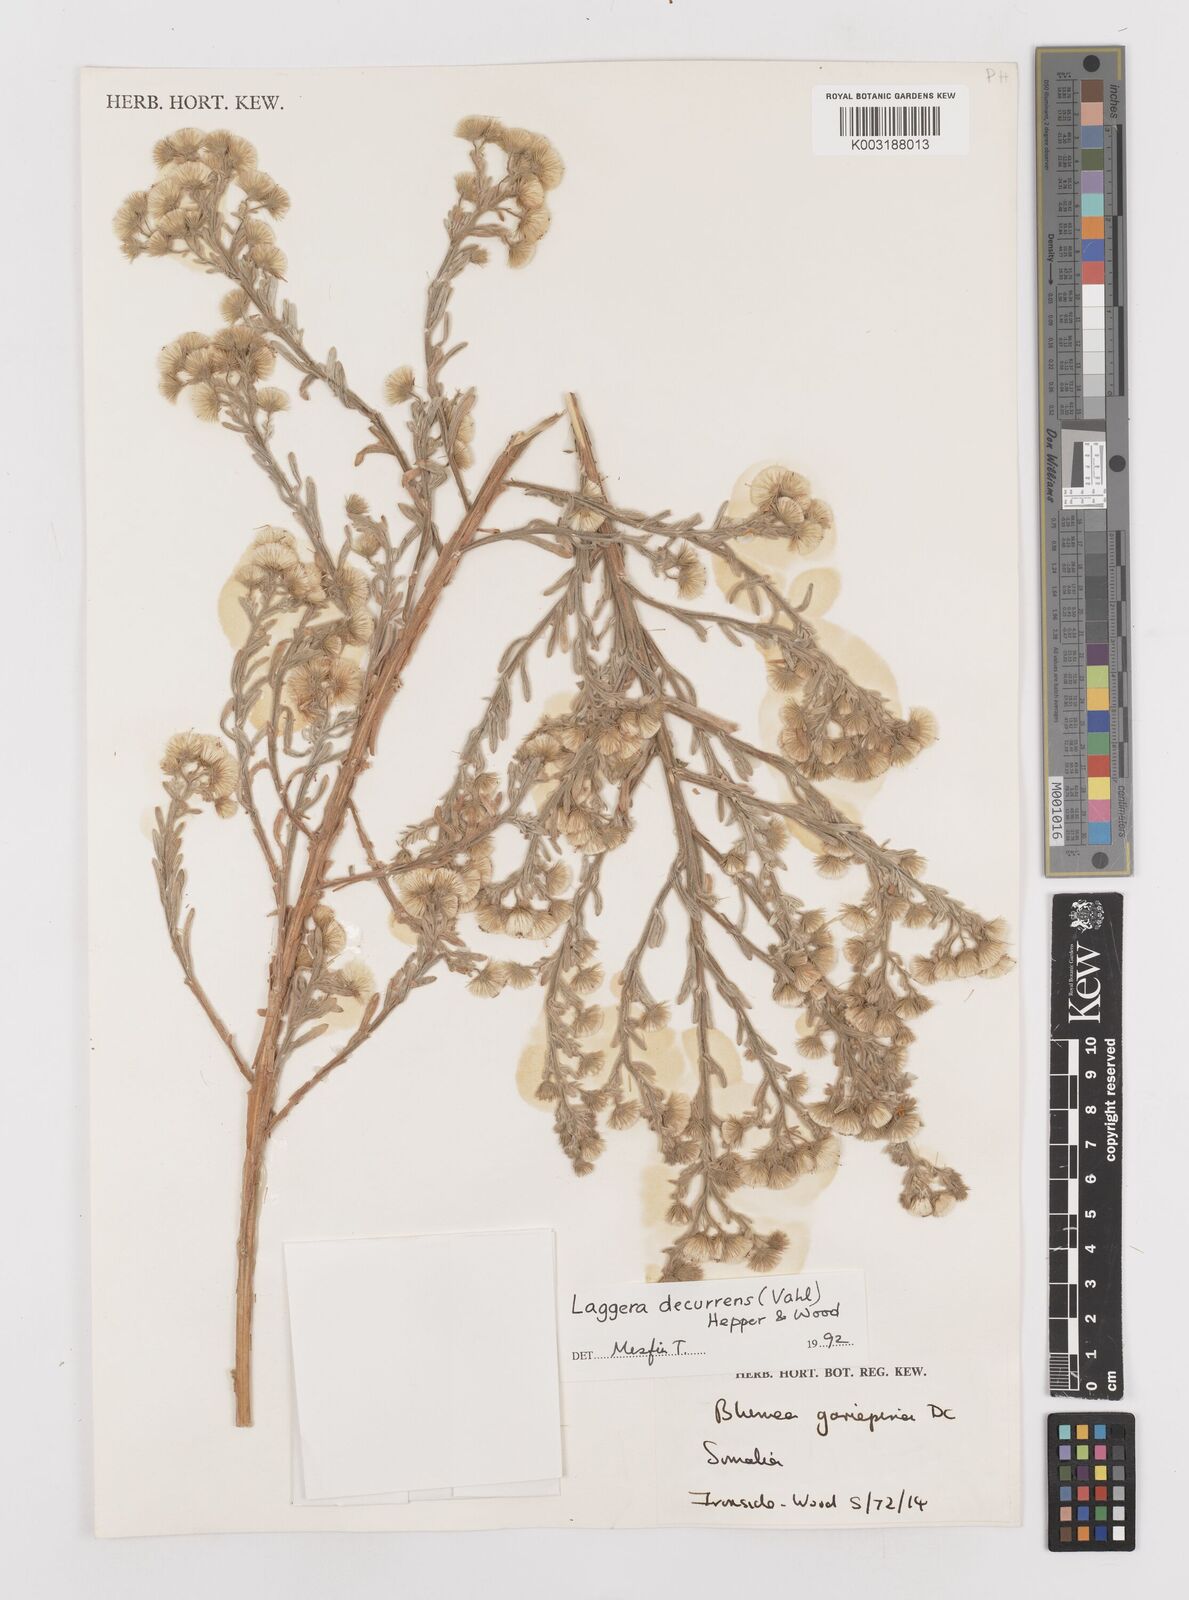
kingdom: Plantae
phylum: Tracheophyta
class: Magnoliopsida
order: Asterales
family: Asteraceae
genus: Laggera
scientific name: Laggera
